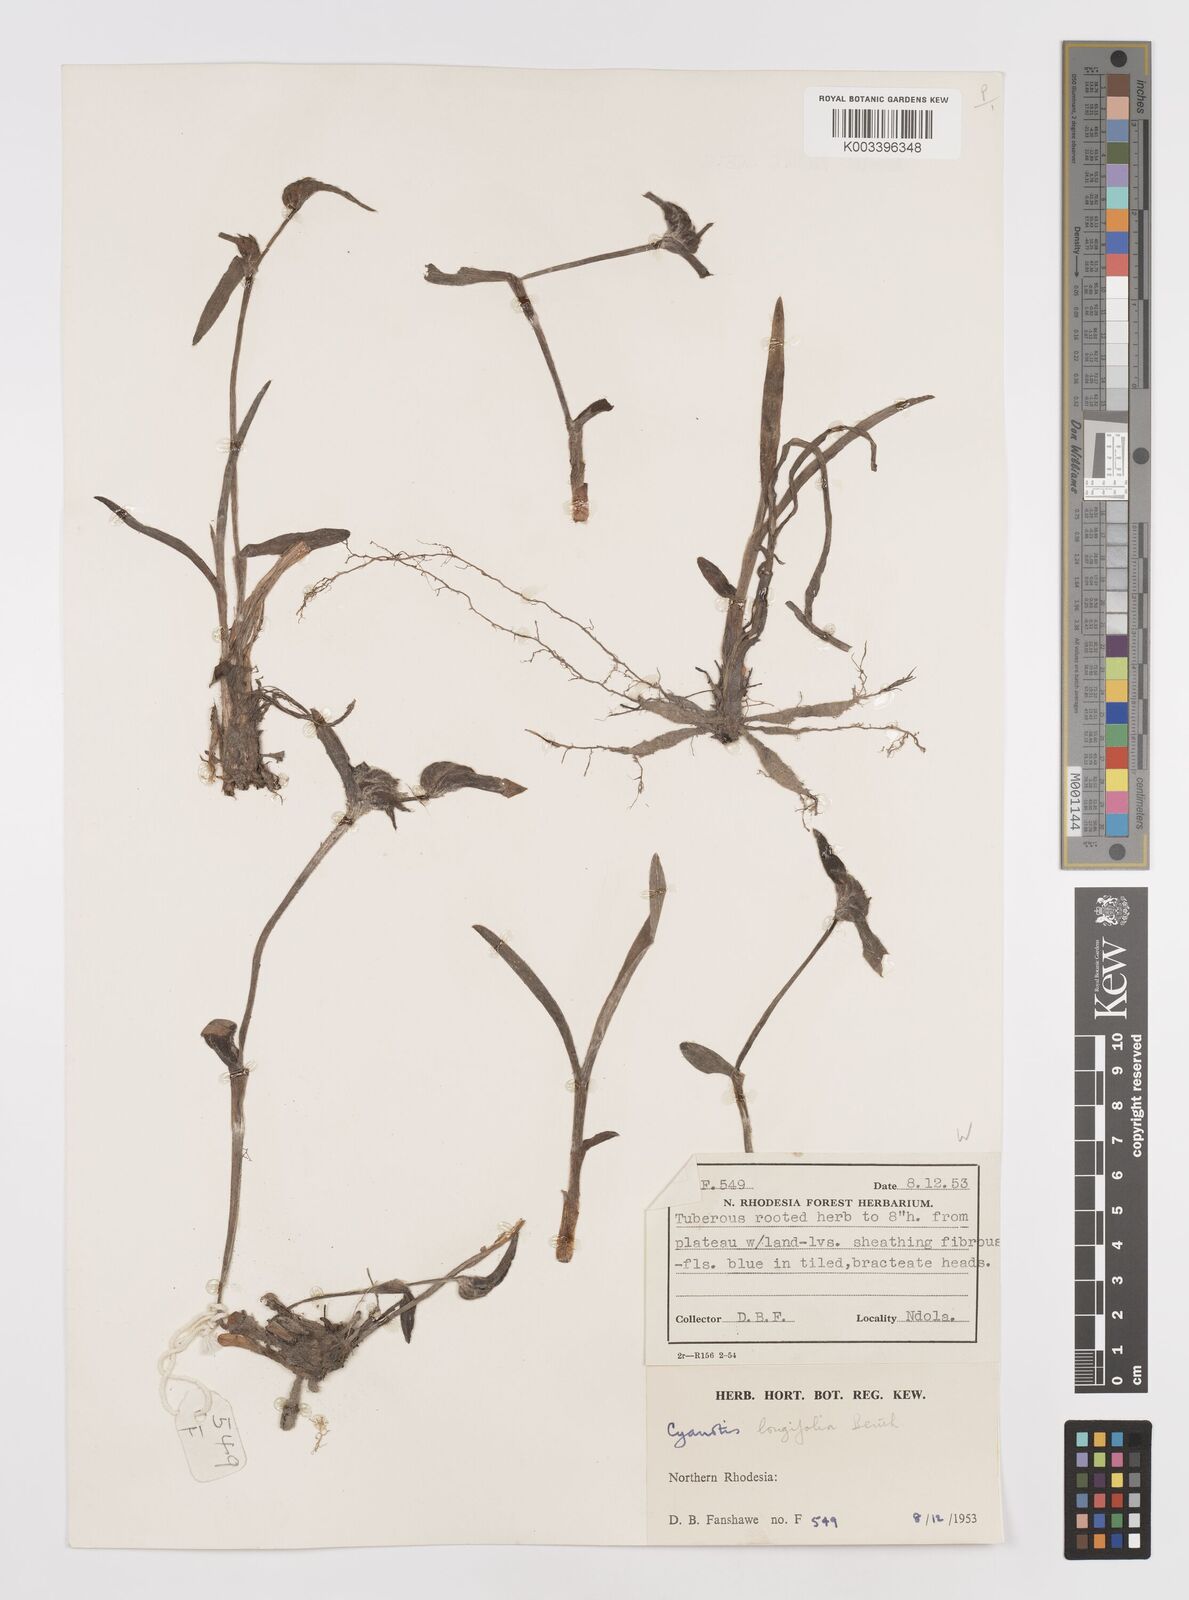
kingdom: Plantae
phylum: Tracheophyta
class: Liliopsida
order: Commelinales
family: Commelinaceae
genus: Cyanotis
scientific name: Cyanotis longifolia
